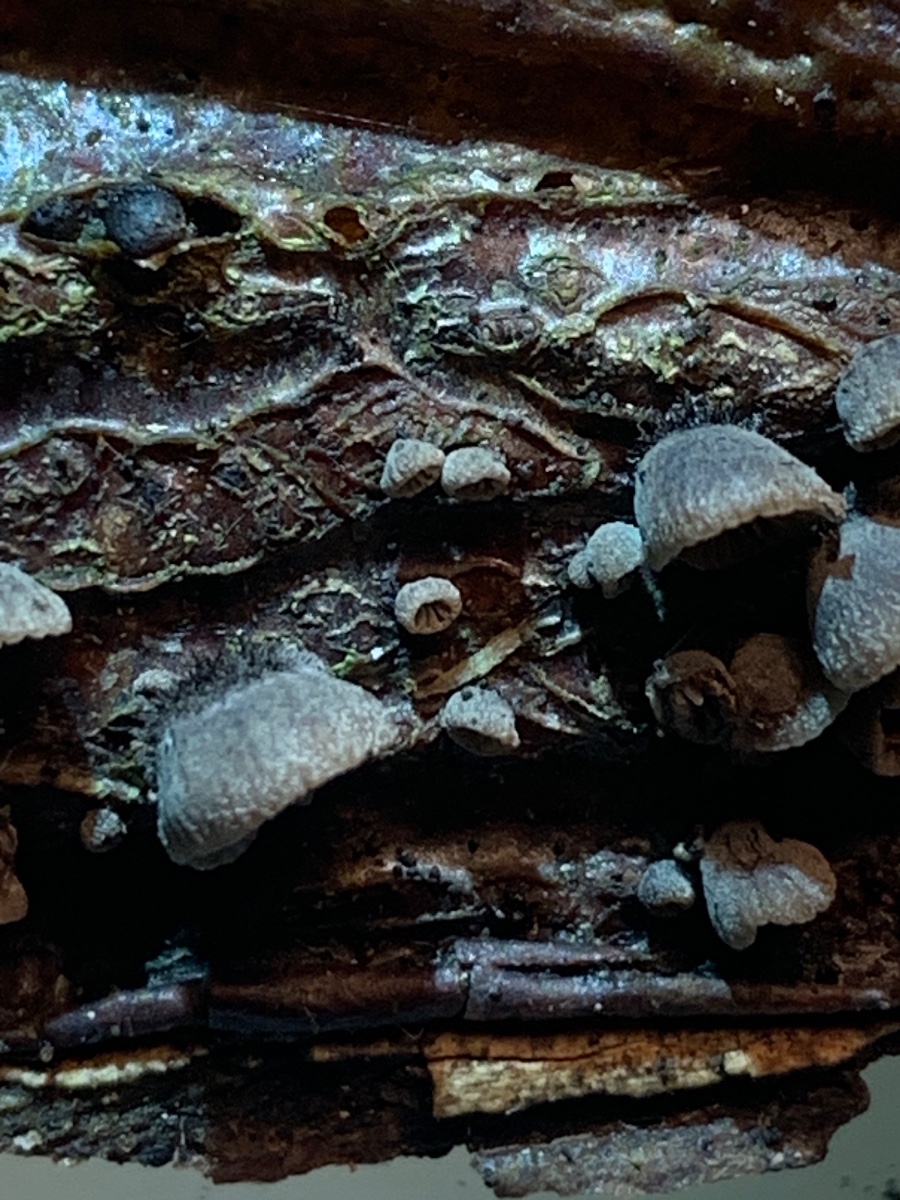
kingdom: Fungi
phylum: Basidiomycota
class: Agaricomycetes
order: Agaricales
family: Pleurotaceae
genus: Resupinatus
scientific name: Resupinatus trichotis
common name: mørkfiltet barkhat
